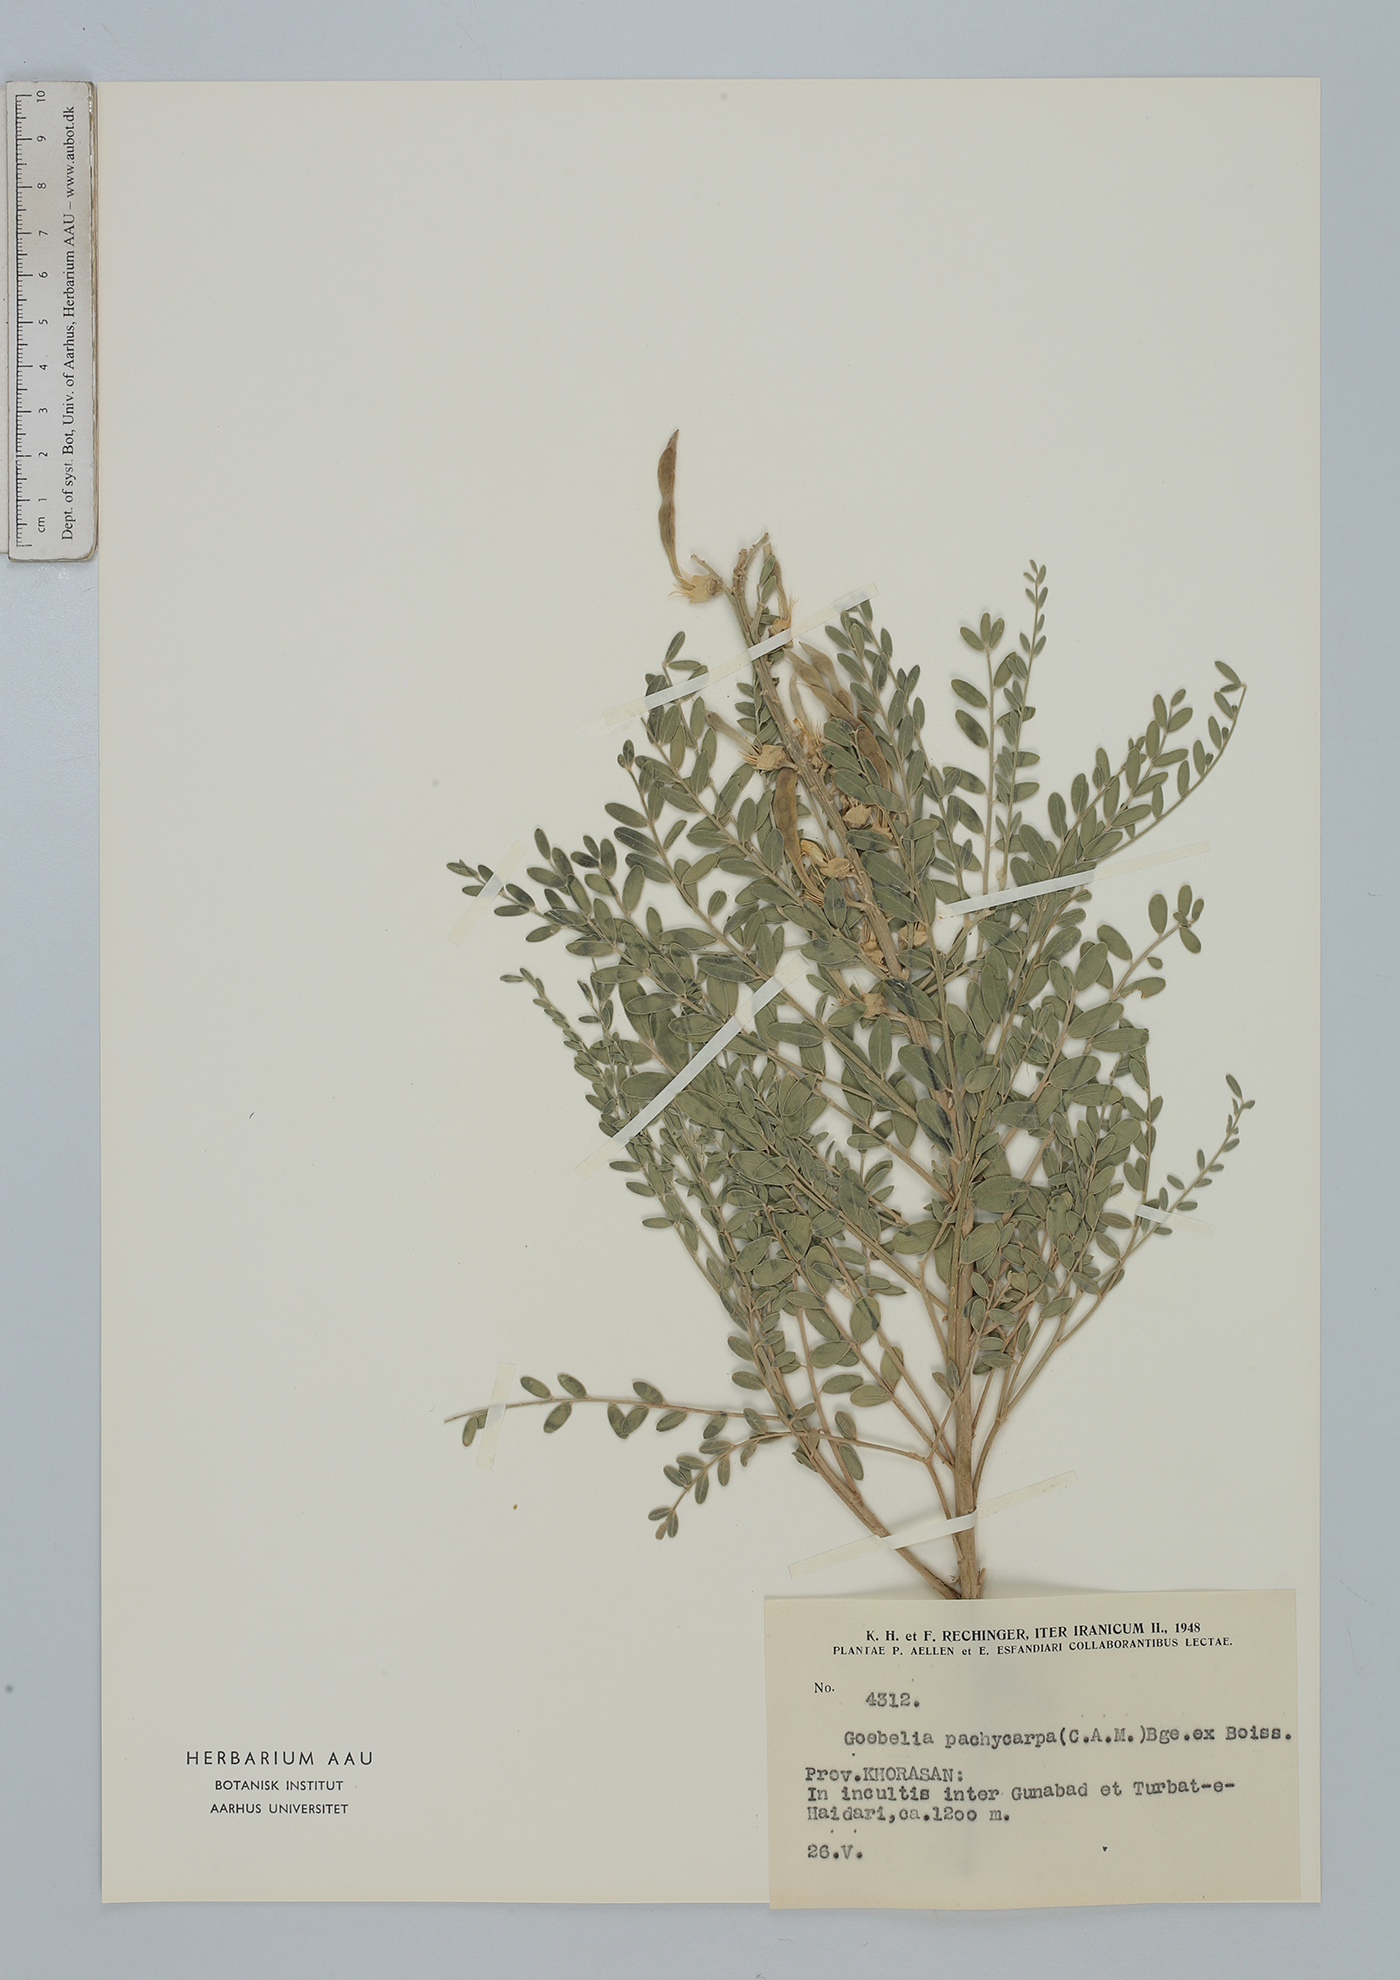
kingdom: Plantae
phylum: Tracheophyta
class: Magnoliopsida
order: Fabales
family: Fabaceae
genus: Sophora
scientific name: Sophora pachycarpa
